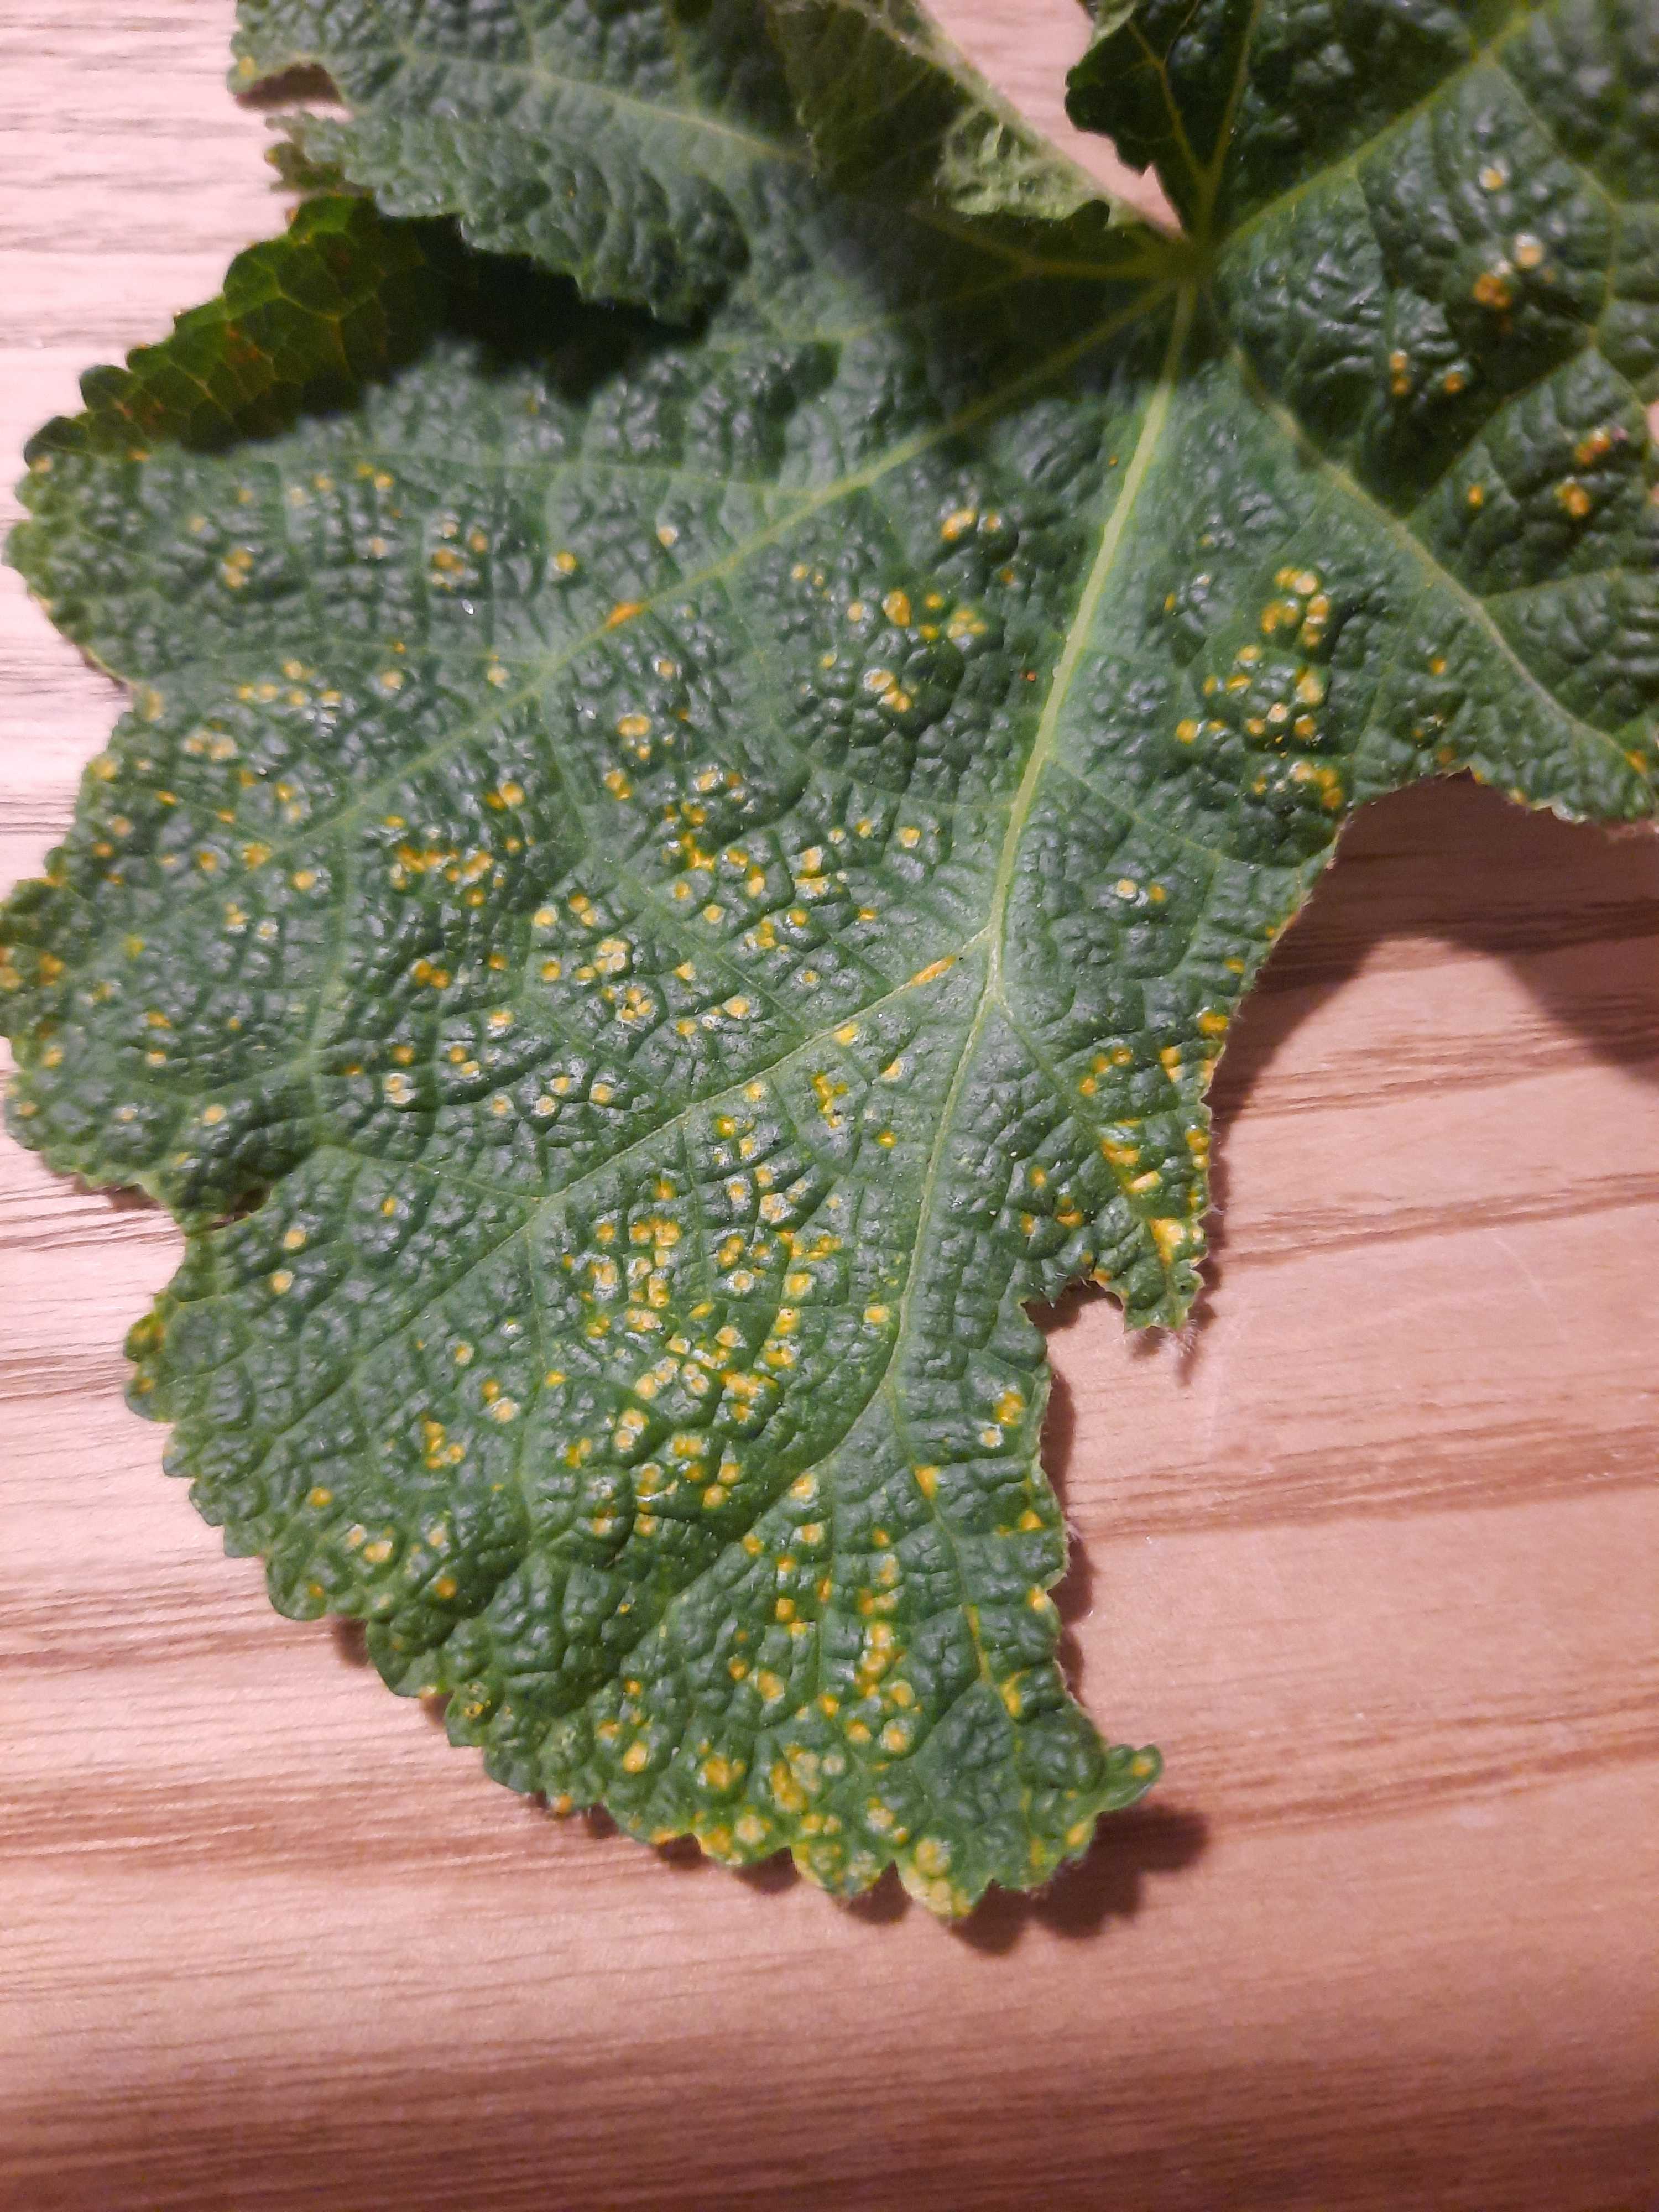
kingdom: Fungi
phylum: Basidiomycota
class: Pucciniomycetes
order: Pucciniales
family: Pucciniaceae
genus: Puccinia
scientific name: Puccinia malvacearum
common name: stokrose-tvecellerust
